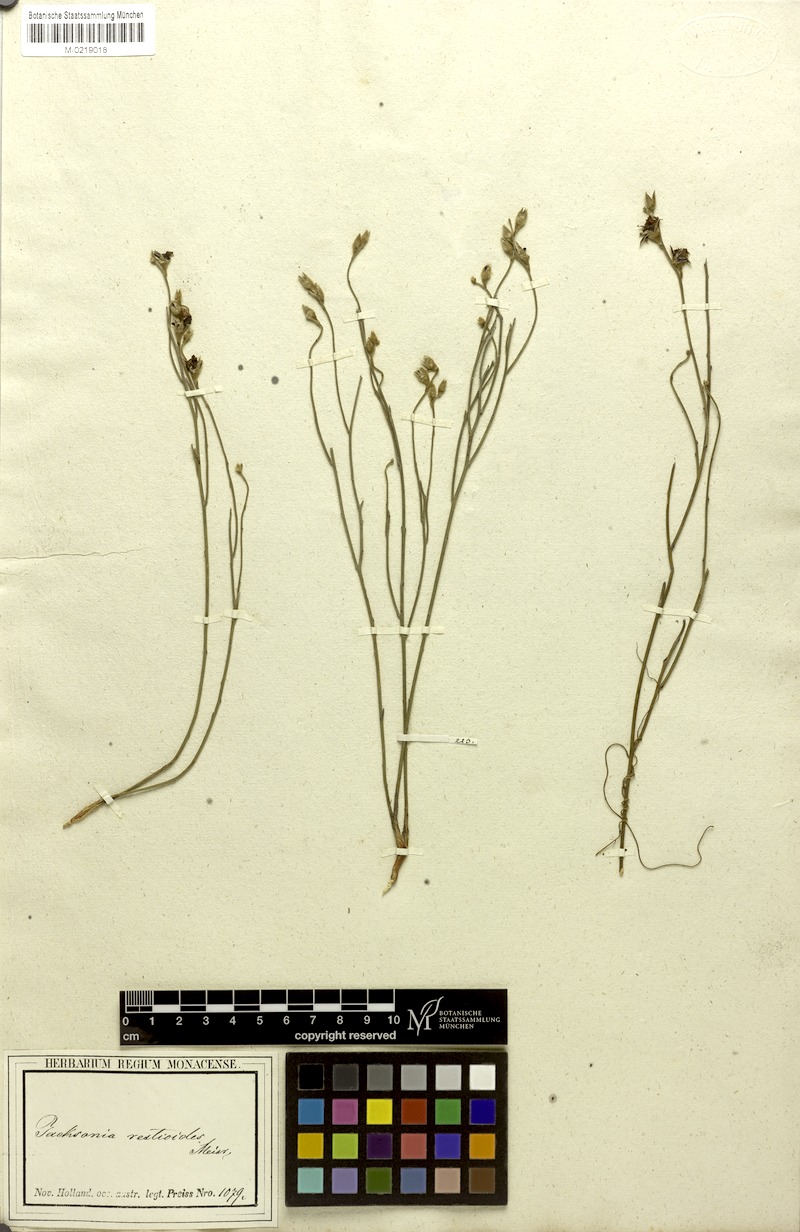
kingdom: Plantae
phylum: Tracheophyta
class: Magnoliopsida
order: Fabales
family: Fabaceae
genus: Jacksonia
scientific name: Jacksonia restioides
